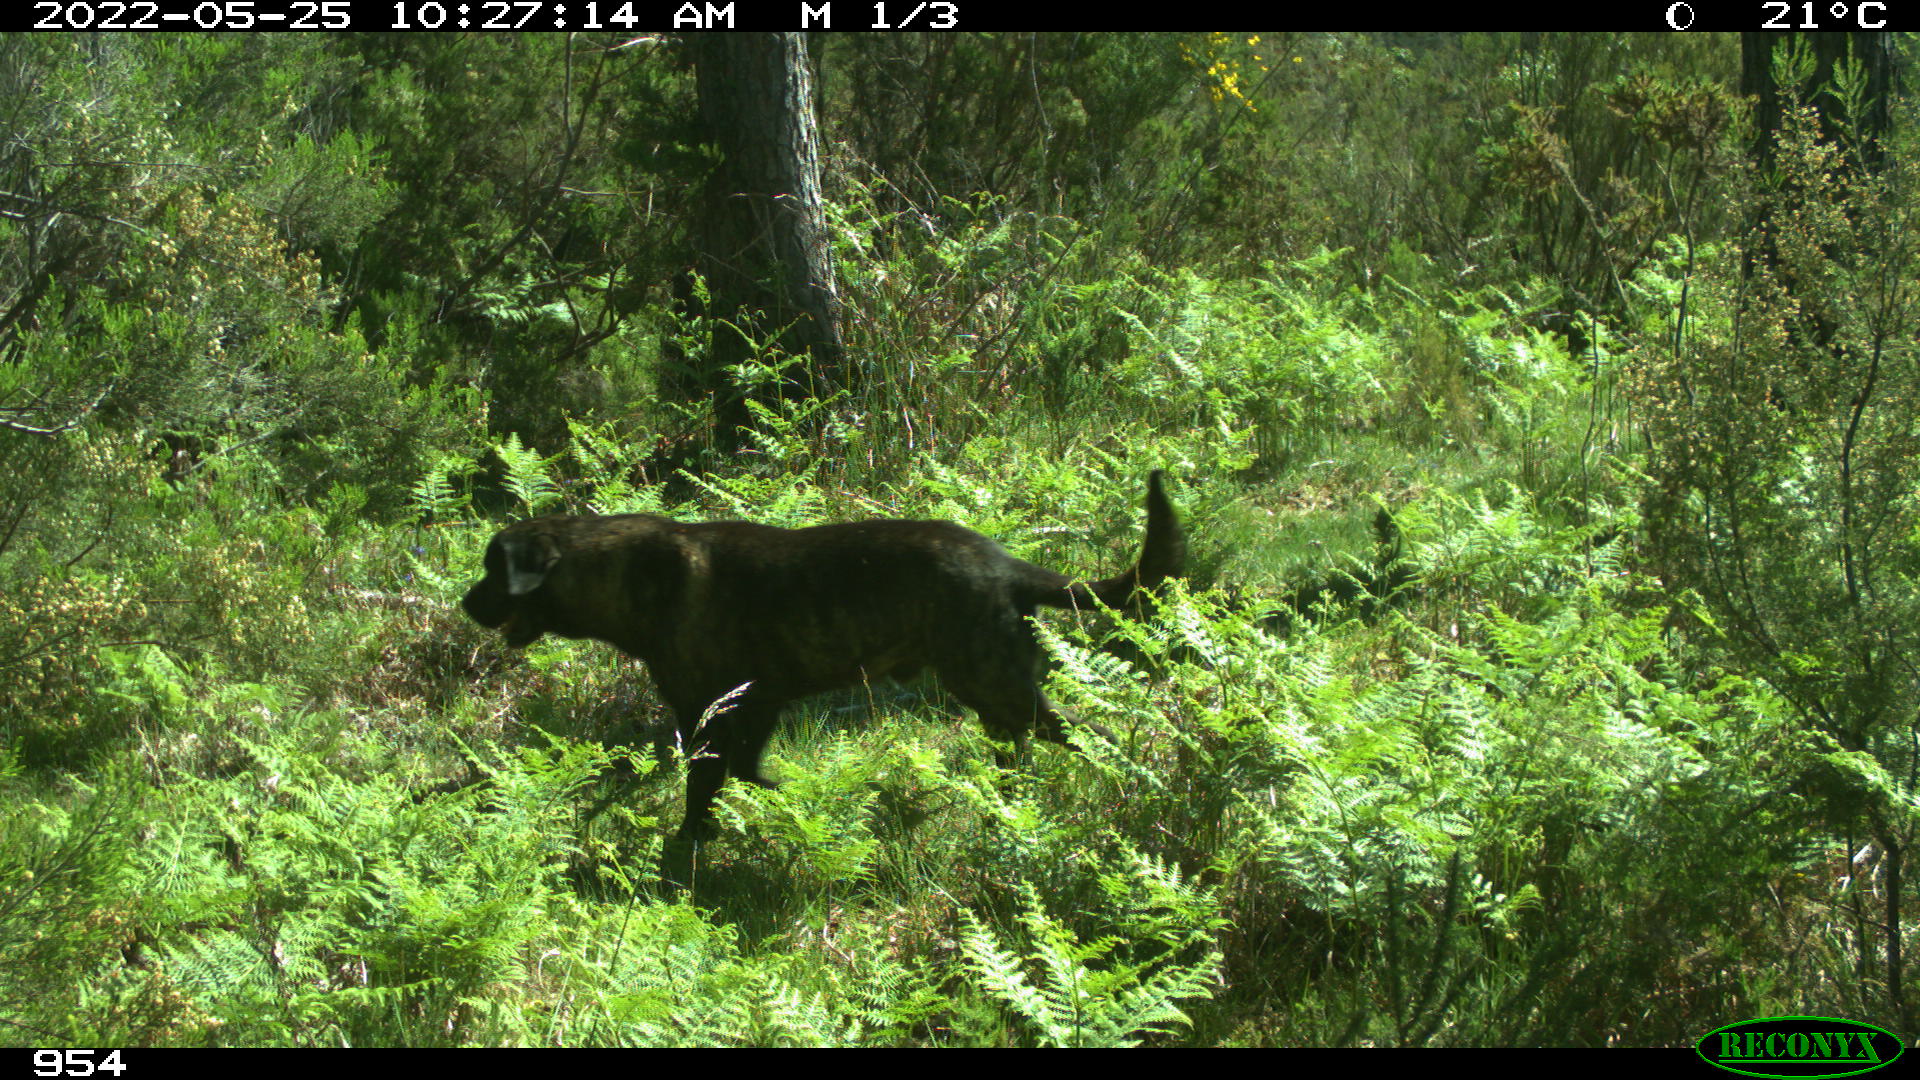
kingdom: Animalia
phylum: Chordata
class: Mammalia
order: Artiodactyla
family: Bovidae
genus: Bos
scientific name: Bos taurus
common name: Domesticated cattle
